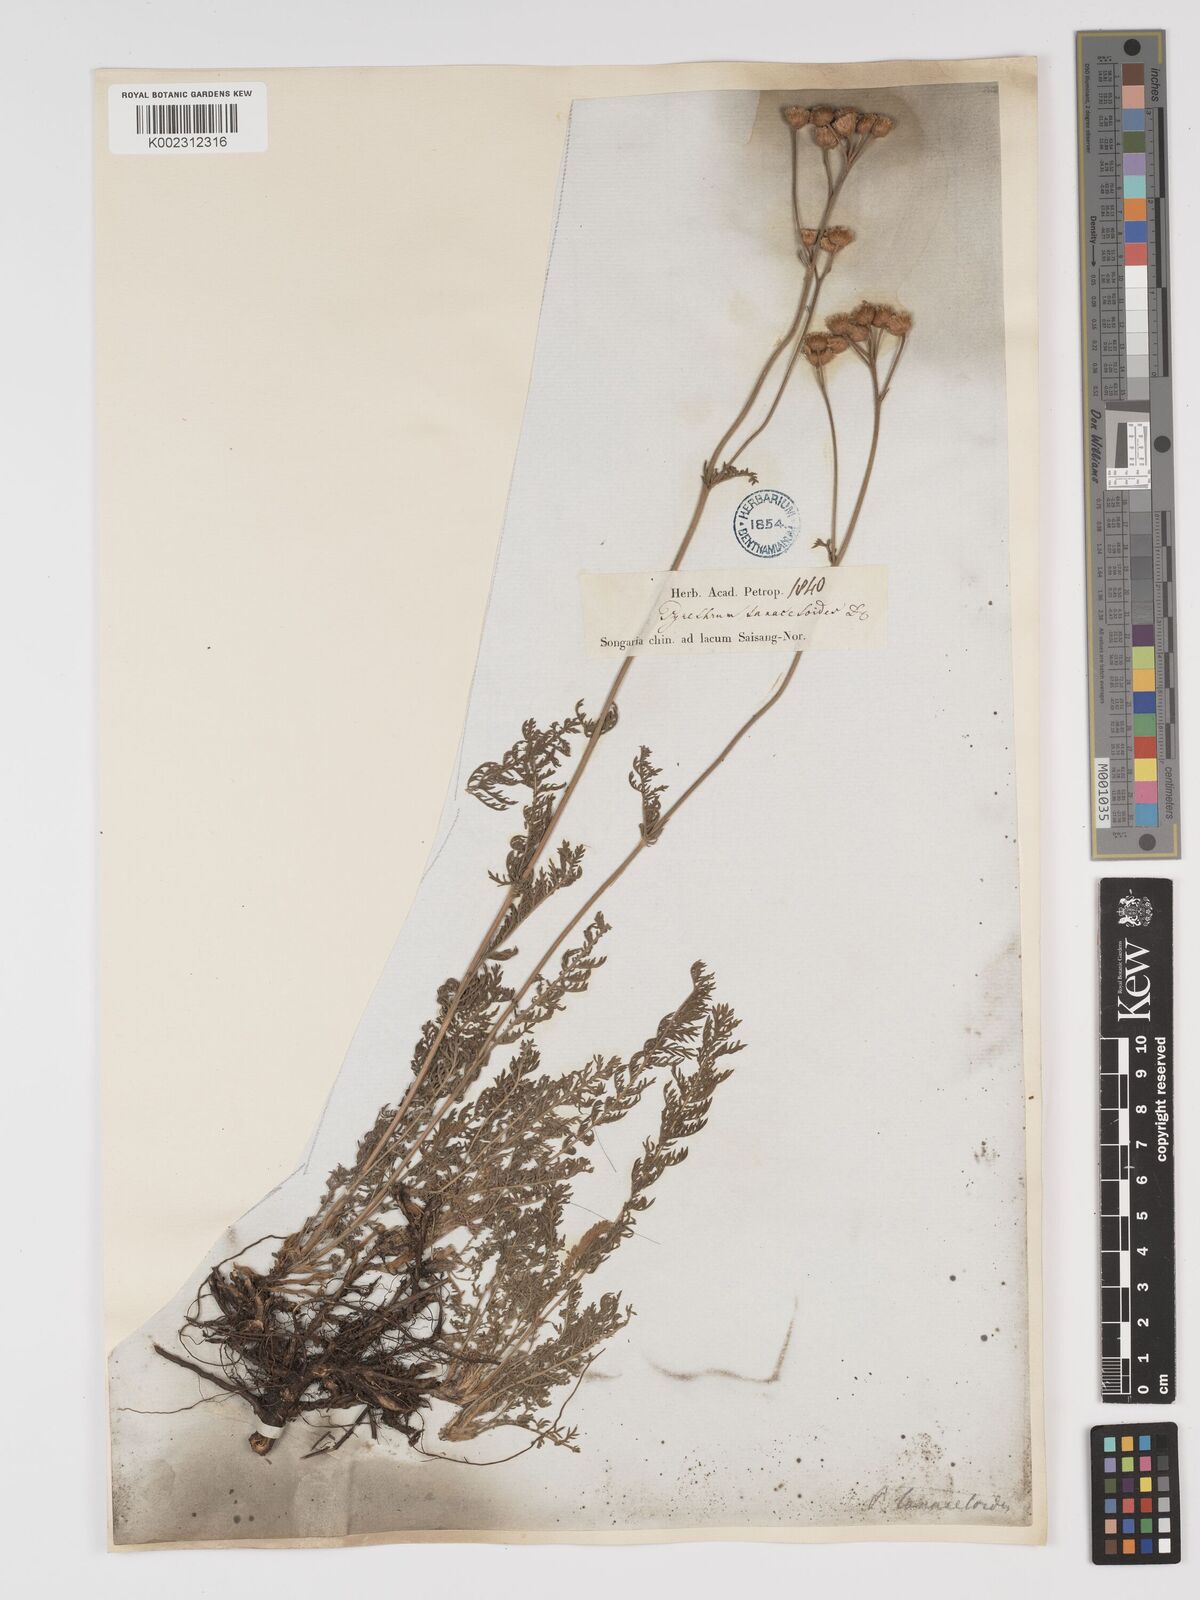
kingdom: Plantae
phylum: Tracheophyta
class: Magnoliopsida
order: Asterales
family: Asteraceae
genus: Tanacetum
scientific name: Tanacetum millefolium
